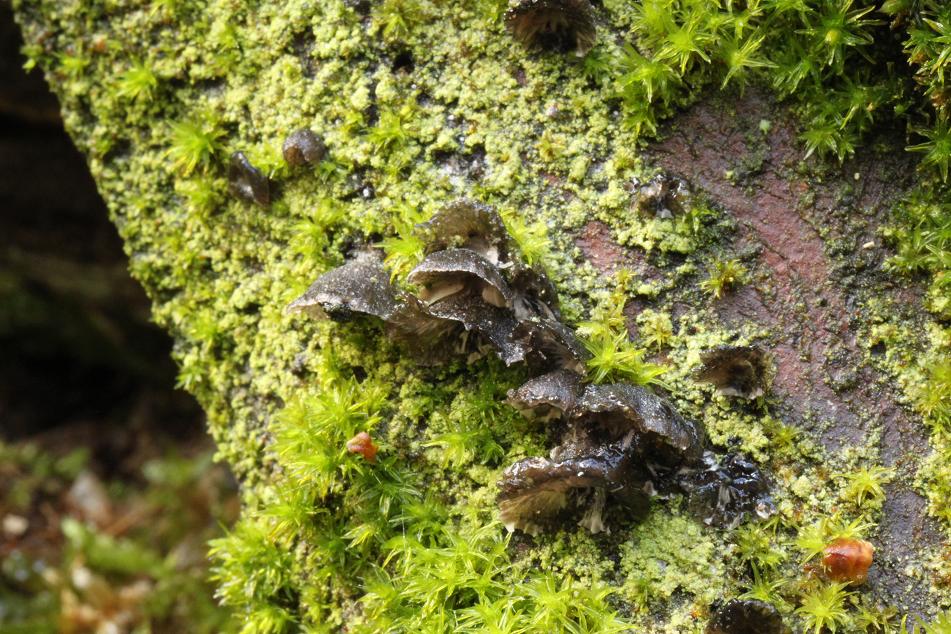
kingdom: Fungi
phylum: Basidiomycota
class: Agaricomycetes
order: Agaricales
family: Pleurotaceae
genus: Hohenbuehelia
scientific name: Hohenbuehelia
